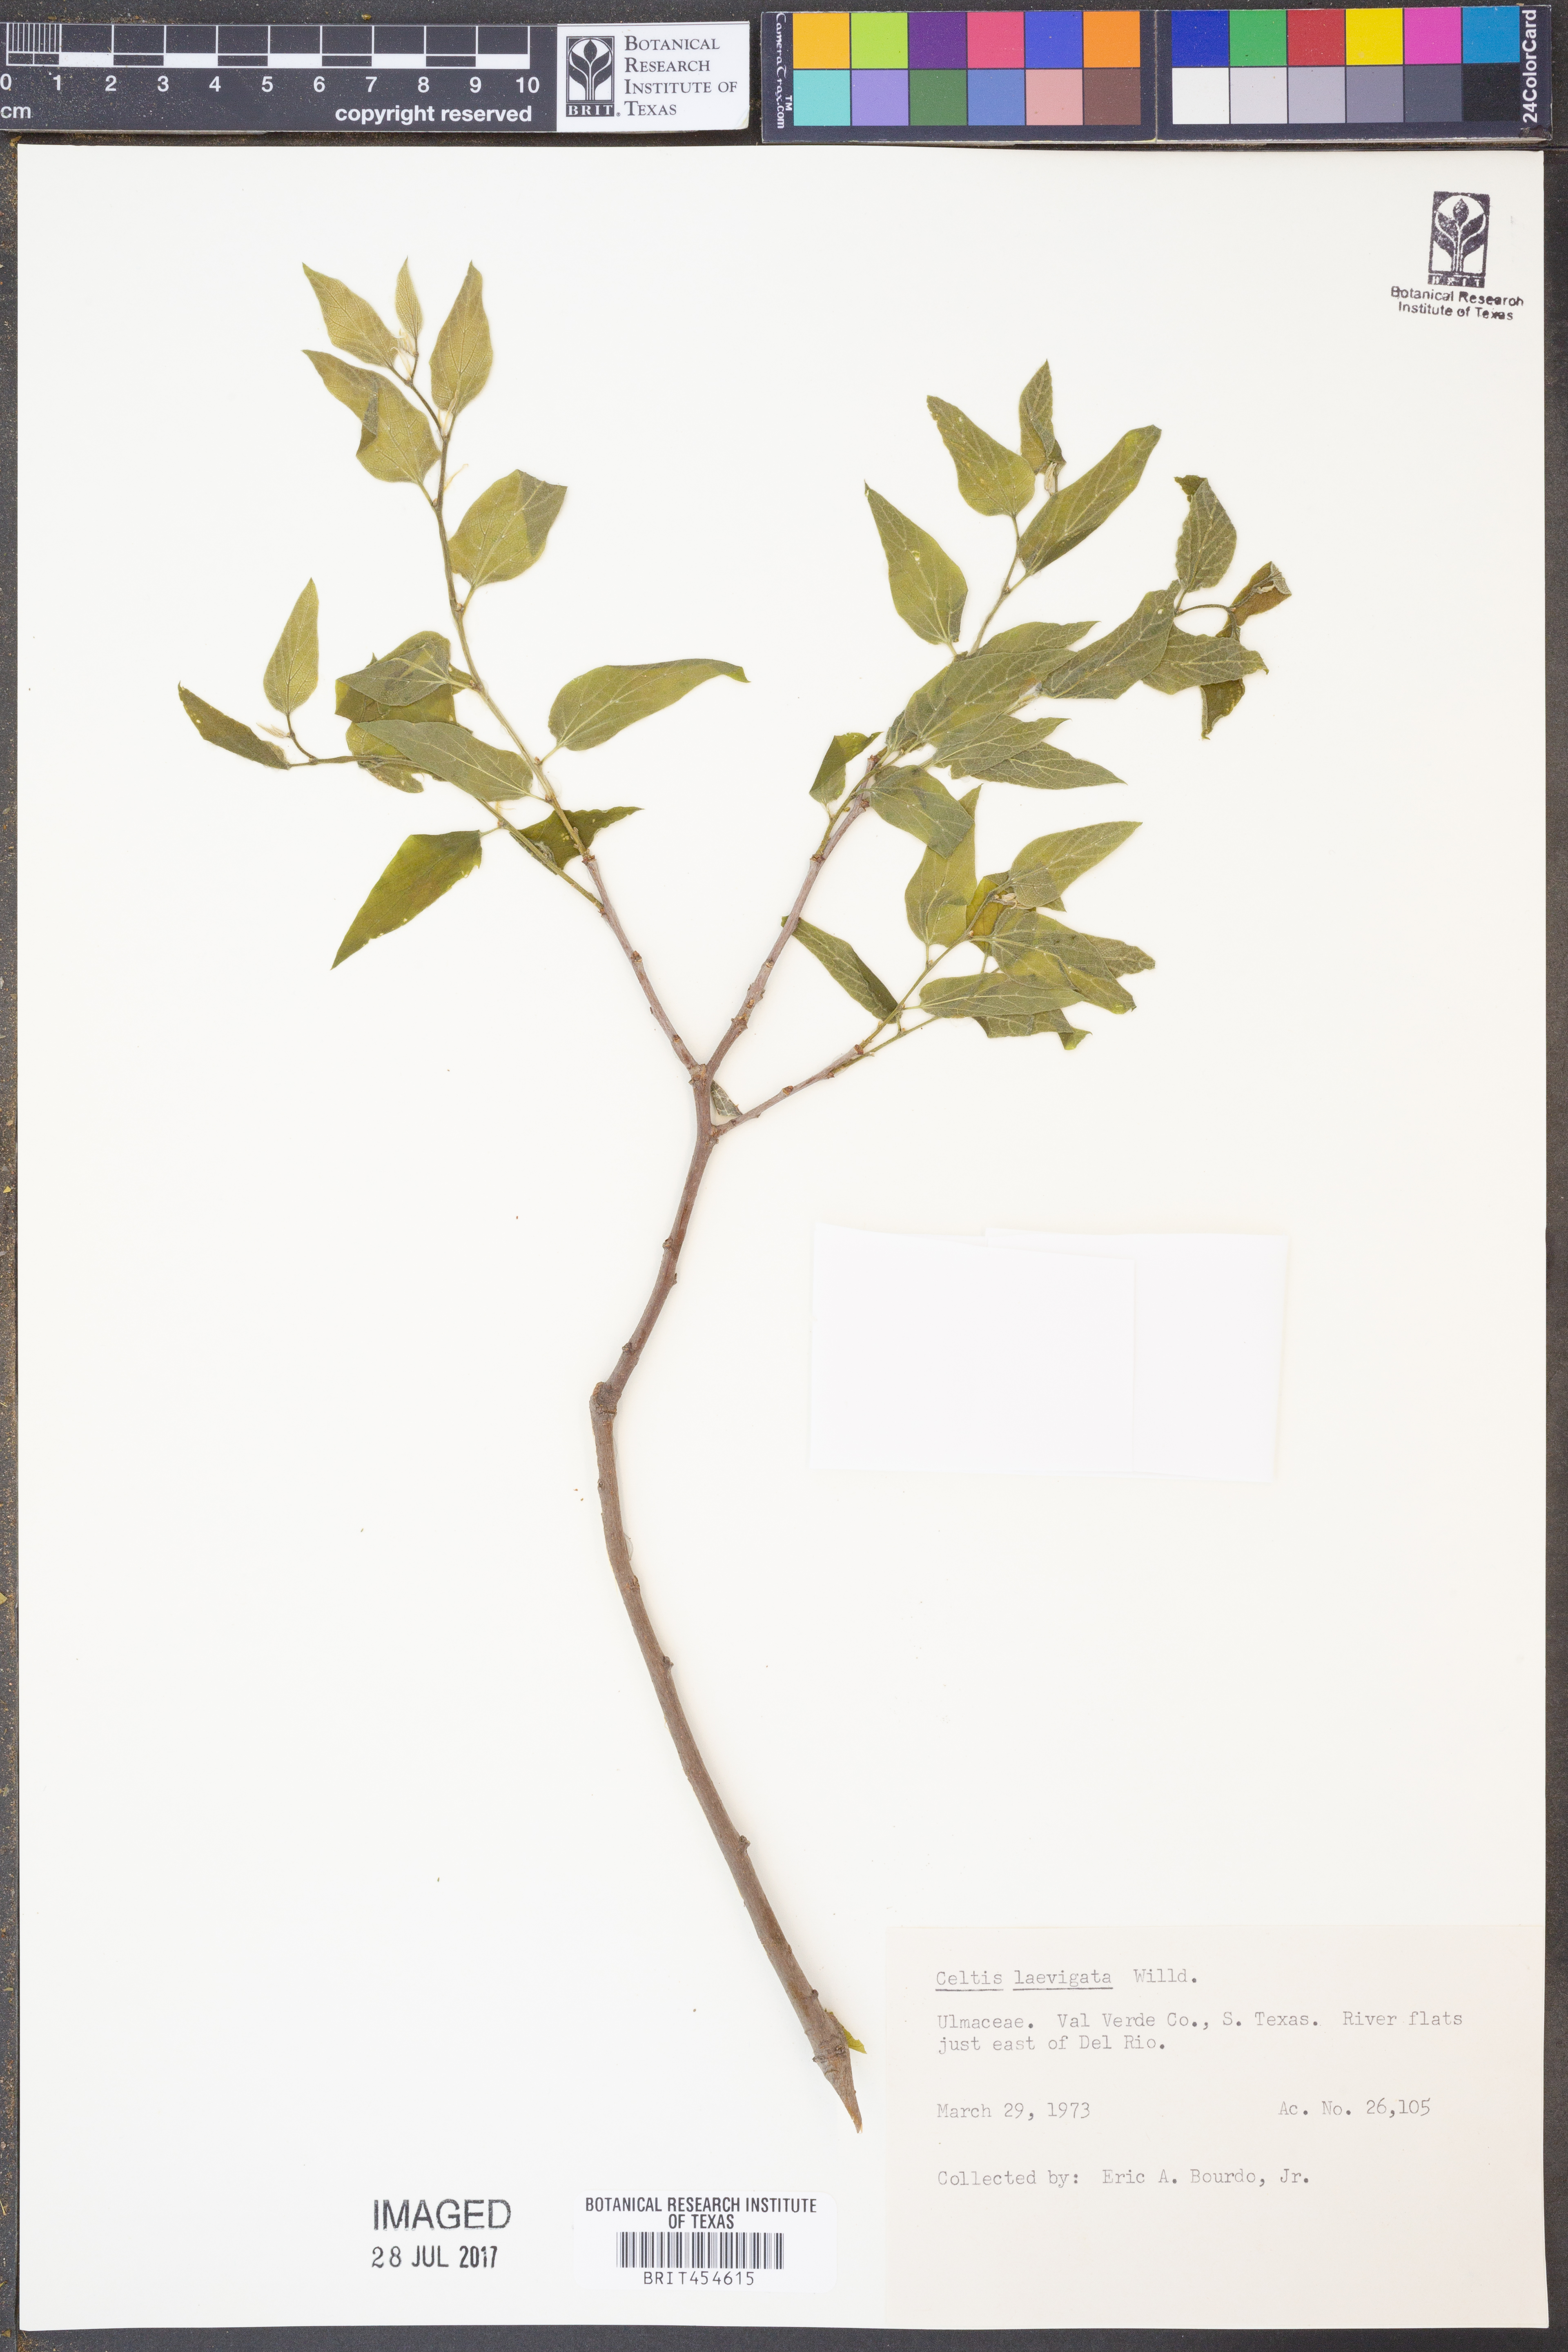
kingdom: Plantae
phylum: Tracheophyta
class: Magnoliopsida
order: Rosales
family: Cannabaceae
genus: Celtis
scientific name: Celtis laevigata
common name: Sugarberry
